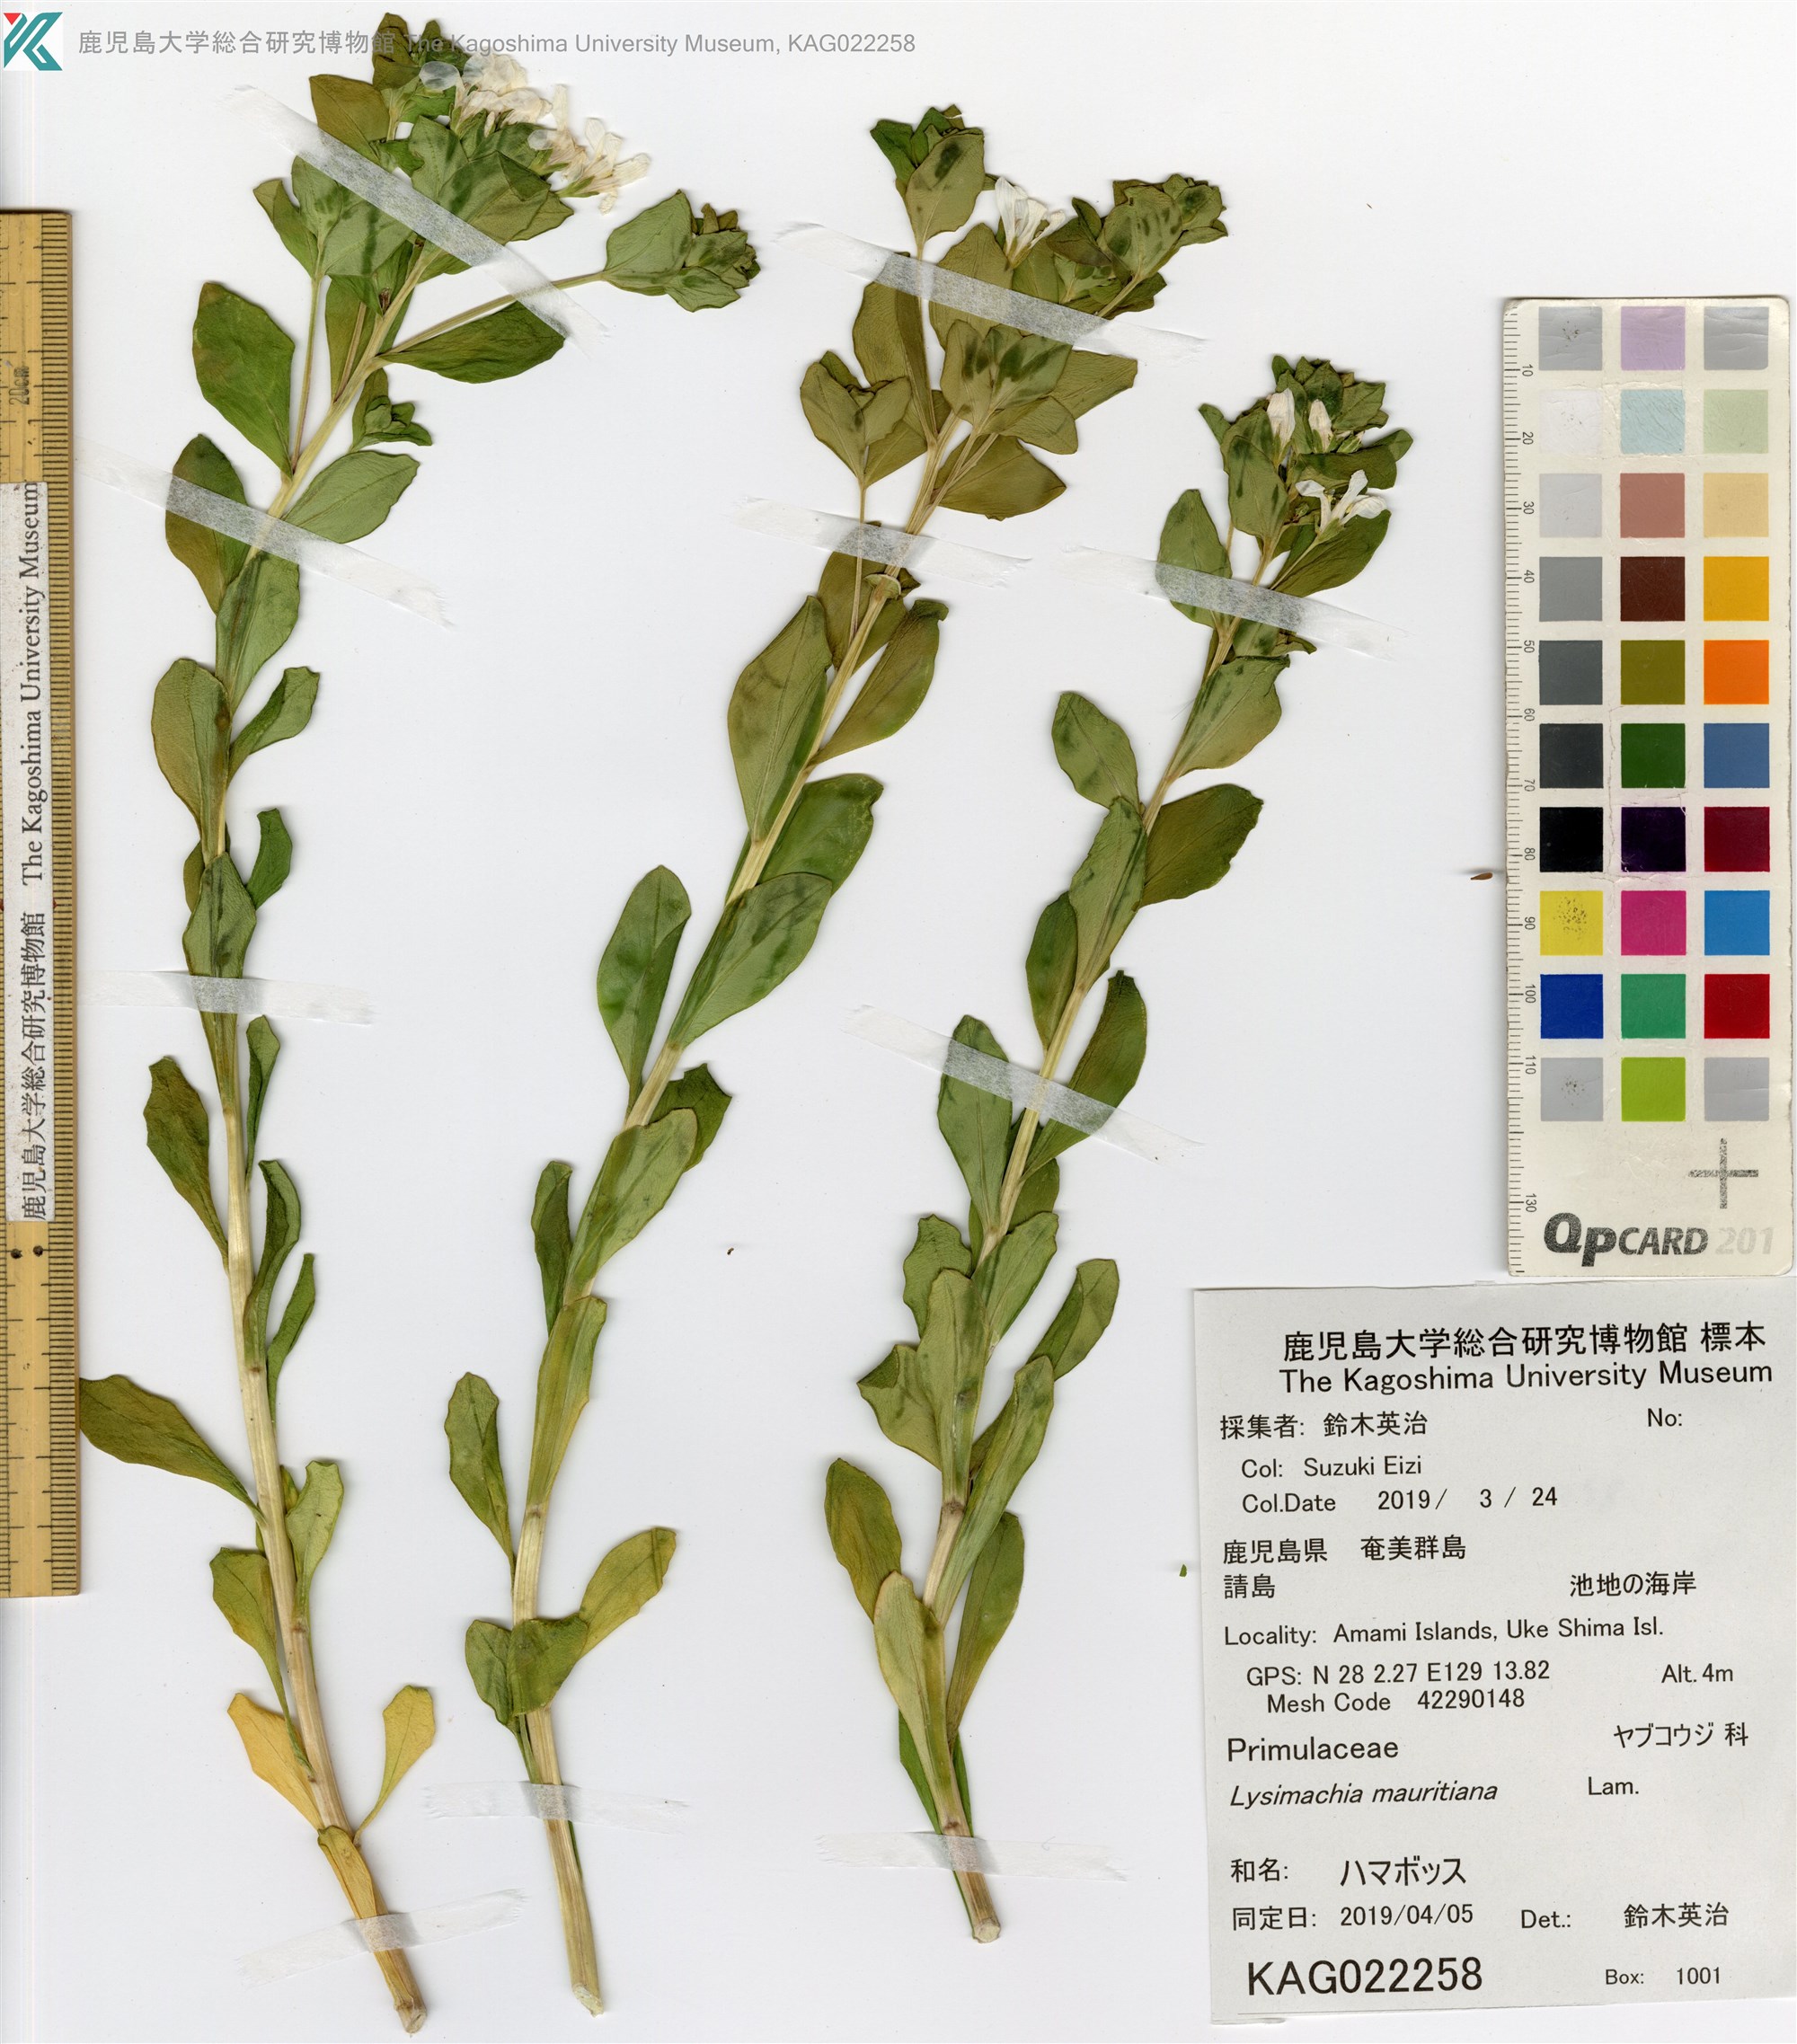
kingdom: Plantae
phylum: Tracheophyta
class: Magnoliopsida
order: Ericales
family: Primulaceae
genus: Lysimachia
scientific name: Lysimachia mauritiana
